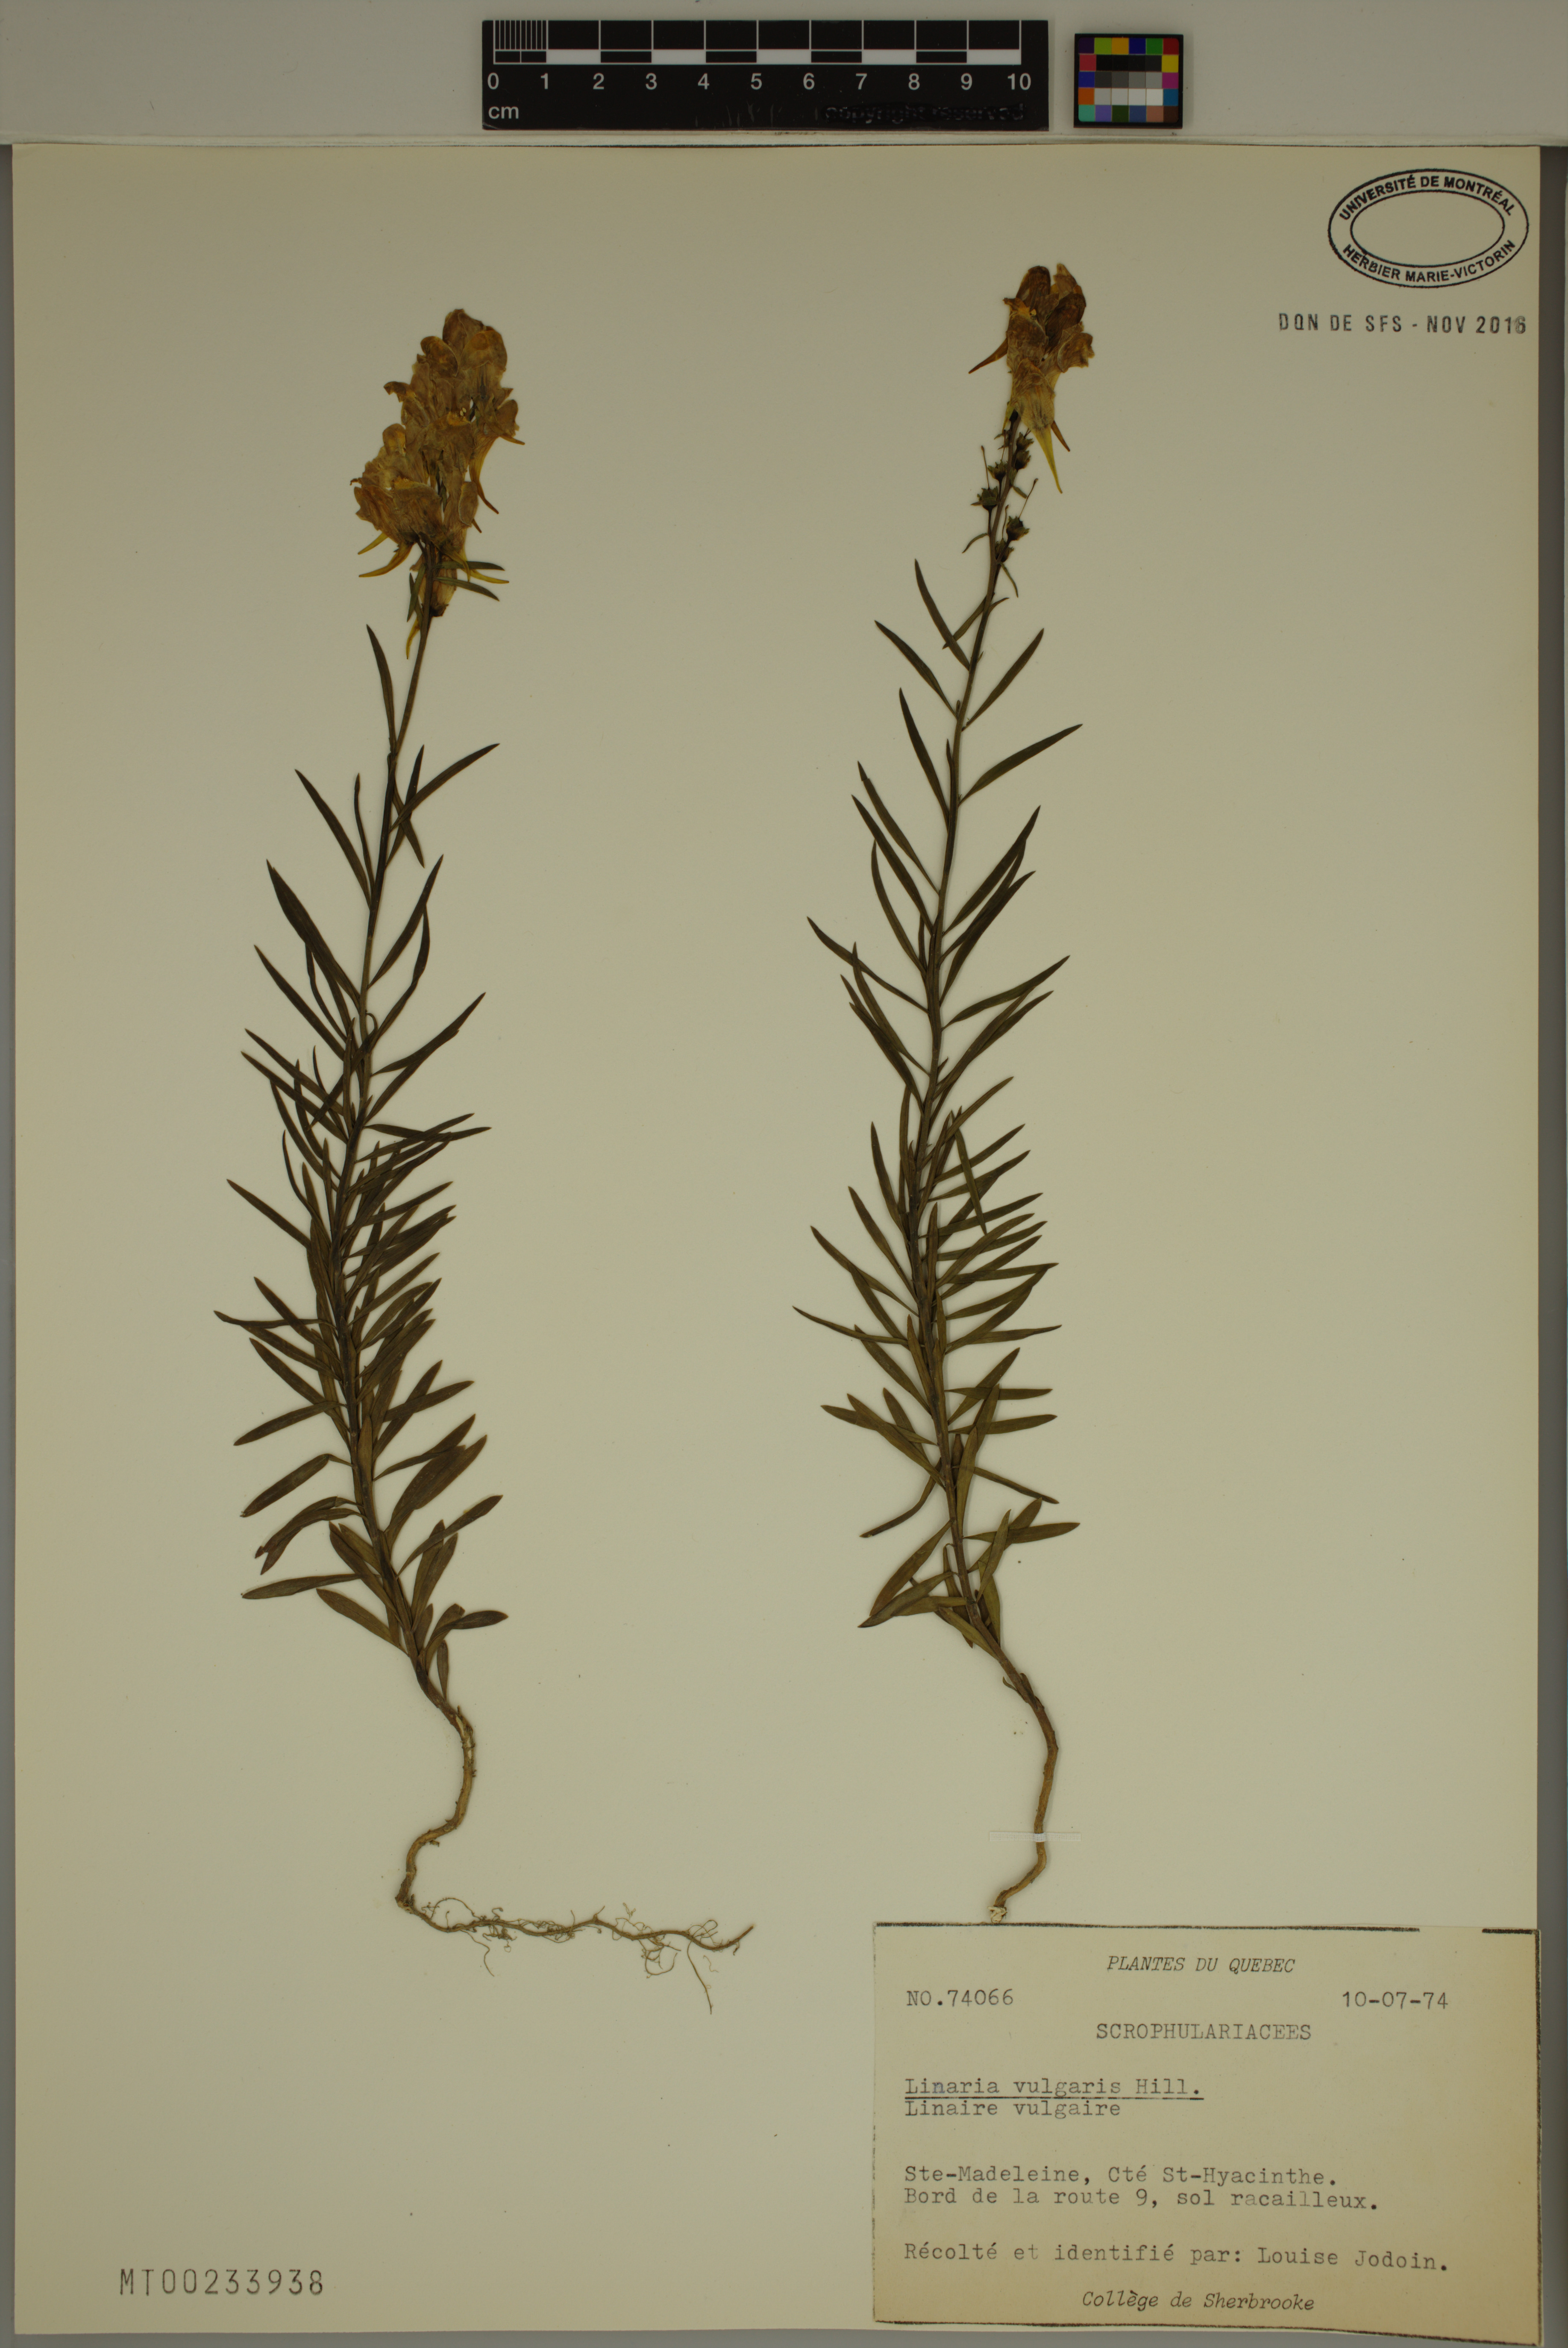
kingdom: Plantae
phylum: Tracheophyta
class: Magnoliopsida
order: Lamiales
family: Plantaginaceae
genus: Linaria
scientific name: Linaria vulgaris
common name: Butter and eggs
